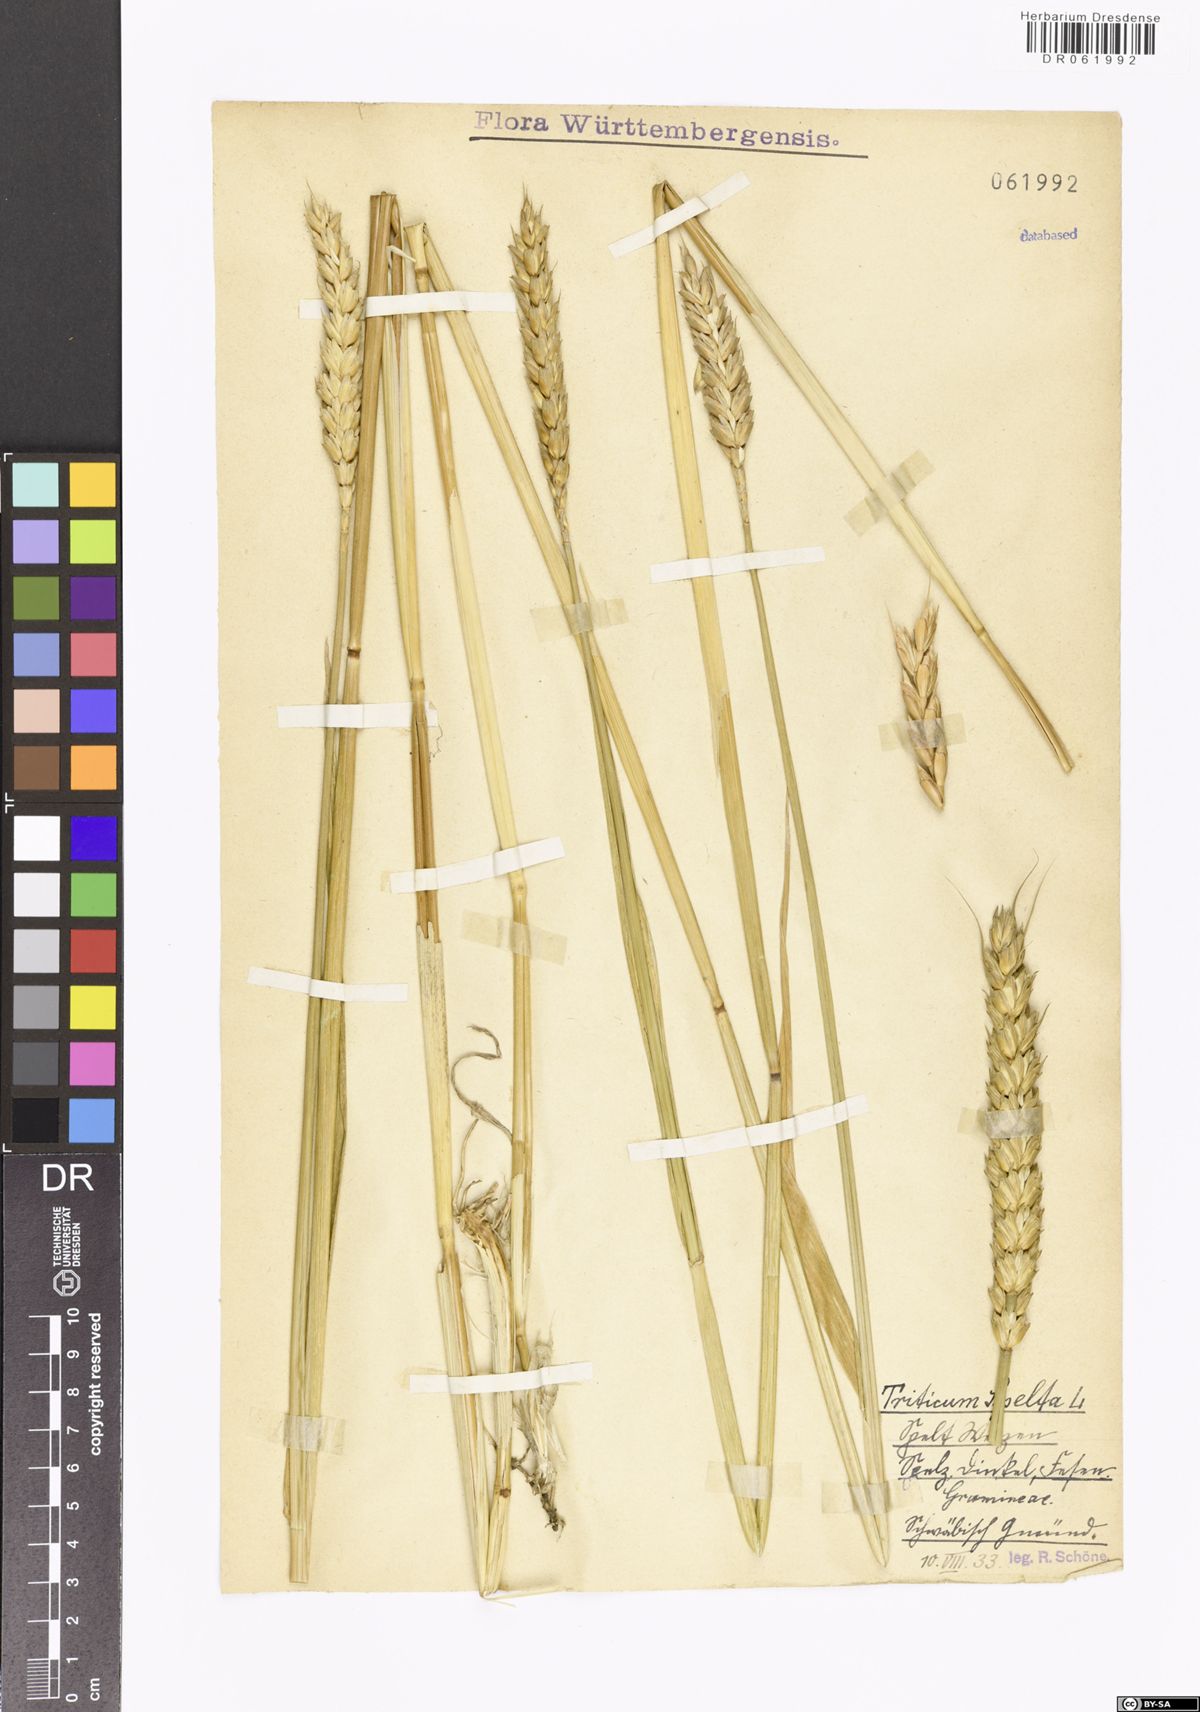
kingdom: Plantae
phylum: Tracheophyta
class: Liliopsida
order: Poales
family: Poaceae
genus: Triticum
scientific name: Triticum aestivum
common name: Common wheat
